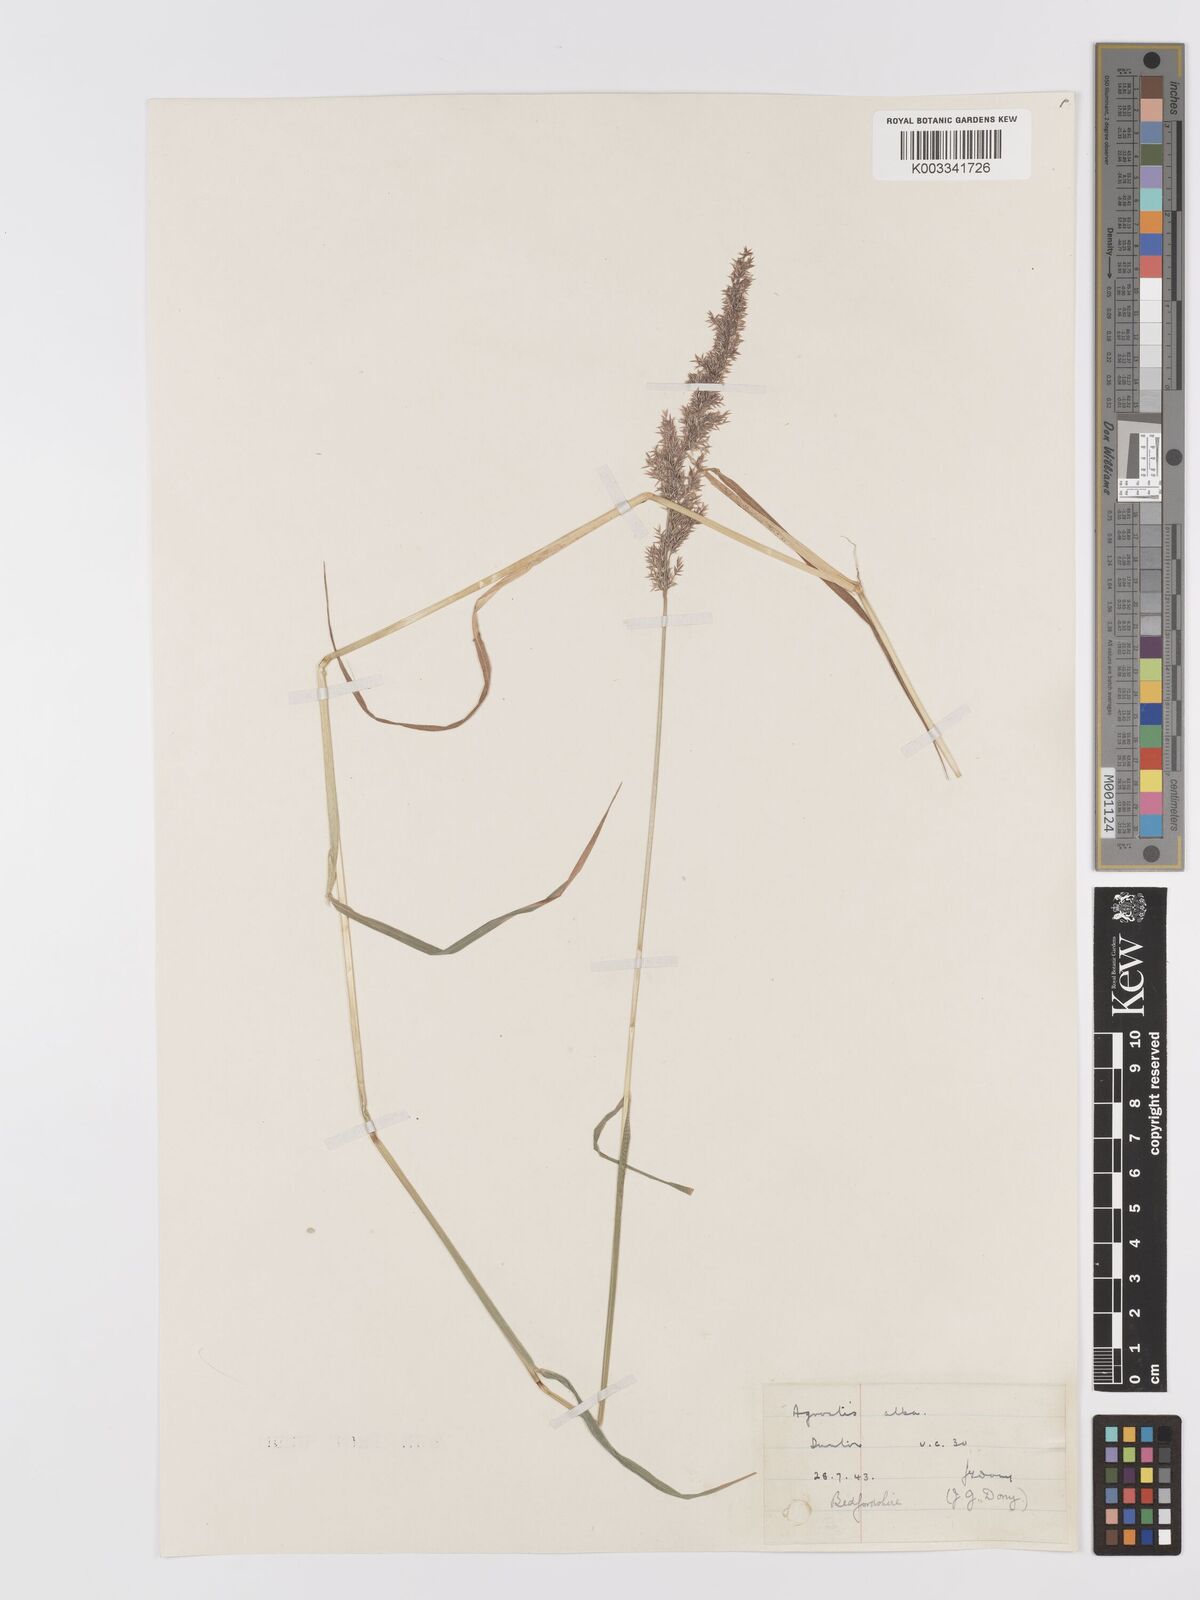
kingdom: Plantae
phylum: Tracheophyta
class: Liliopsida
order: Poales
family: Poaceae
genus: Agrostis
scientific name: Agrostis stolonifera
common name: Creeping bentgrass
